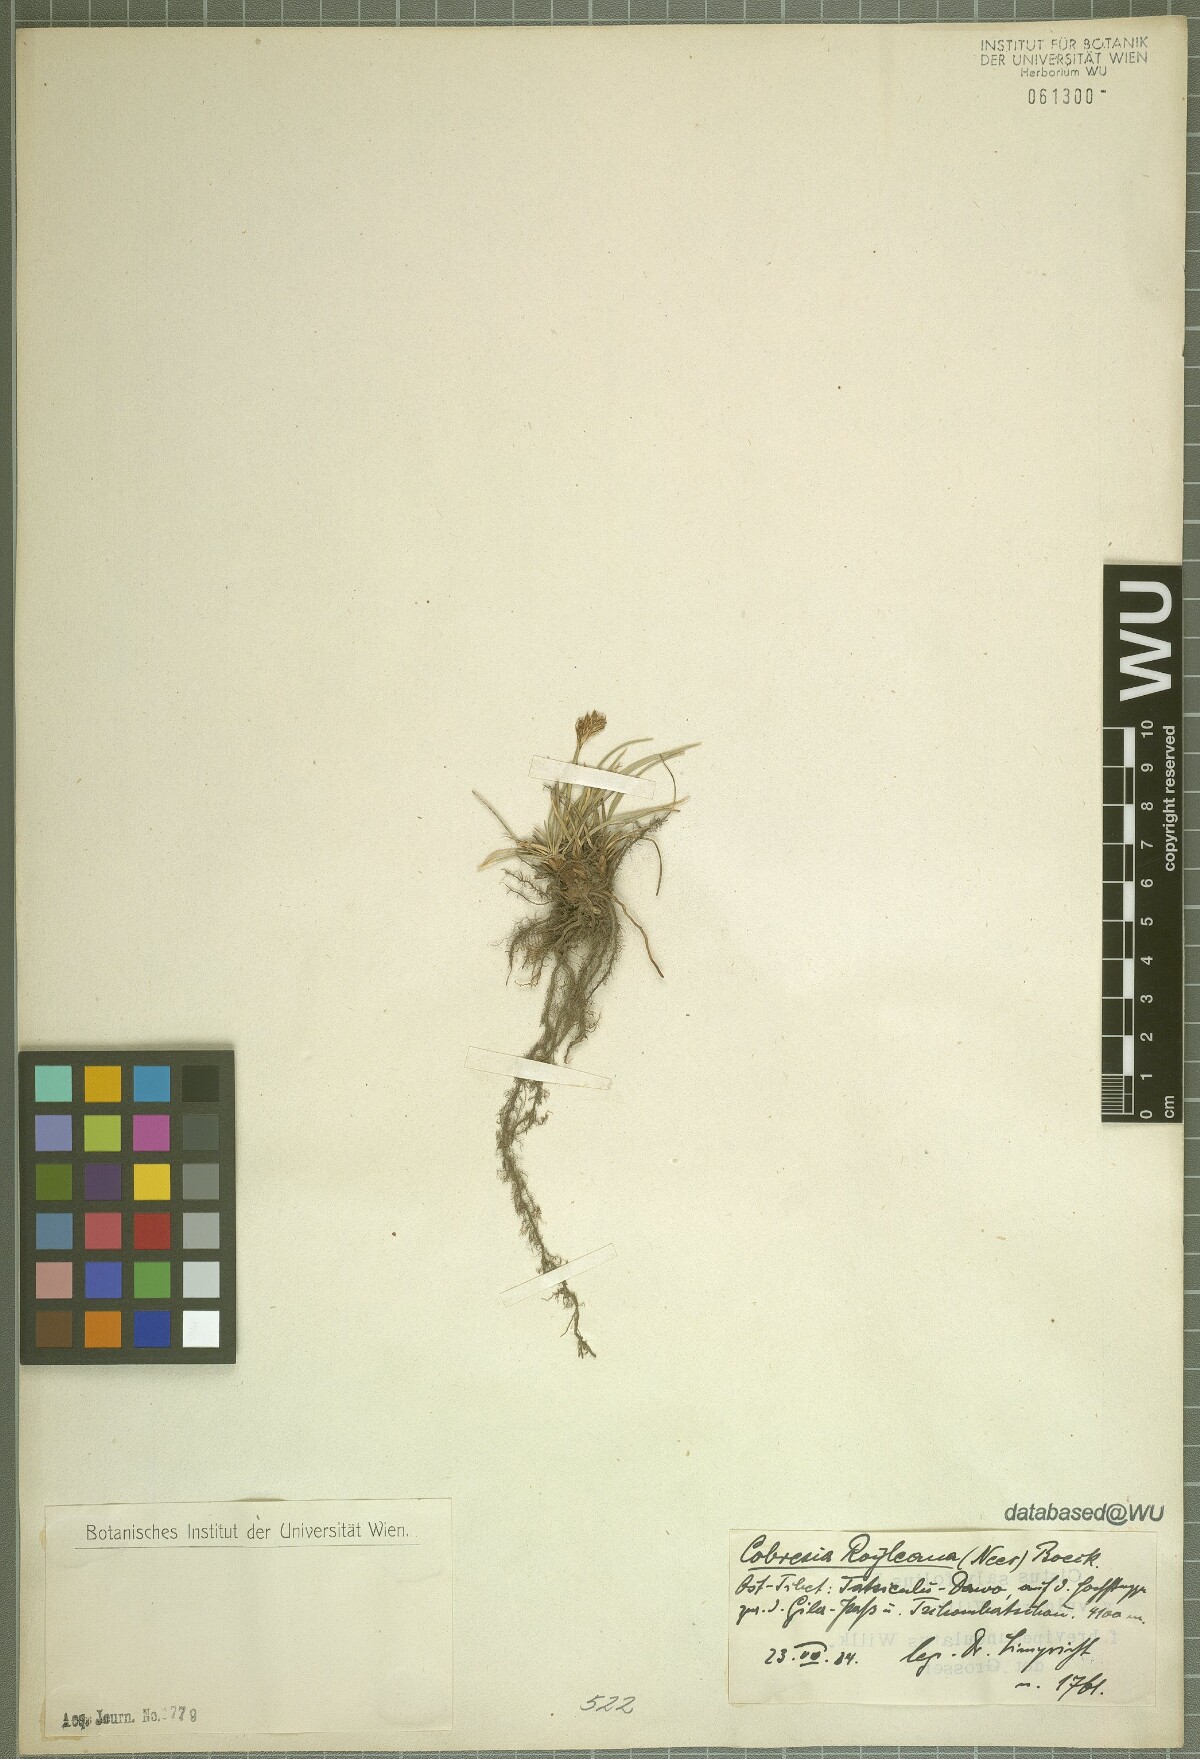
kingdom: Plantae
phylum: Tracheophyta
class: Liliopsida
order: Poales
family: Cyperaceae
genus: Carex
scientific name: Carex kokanica
